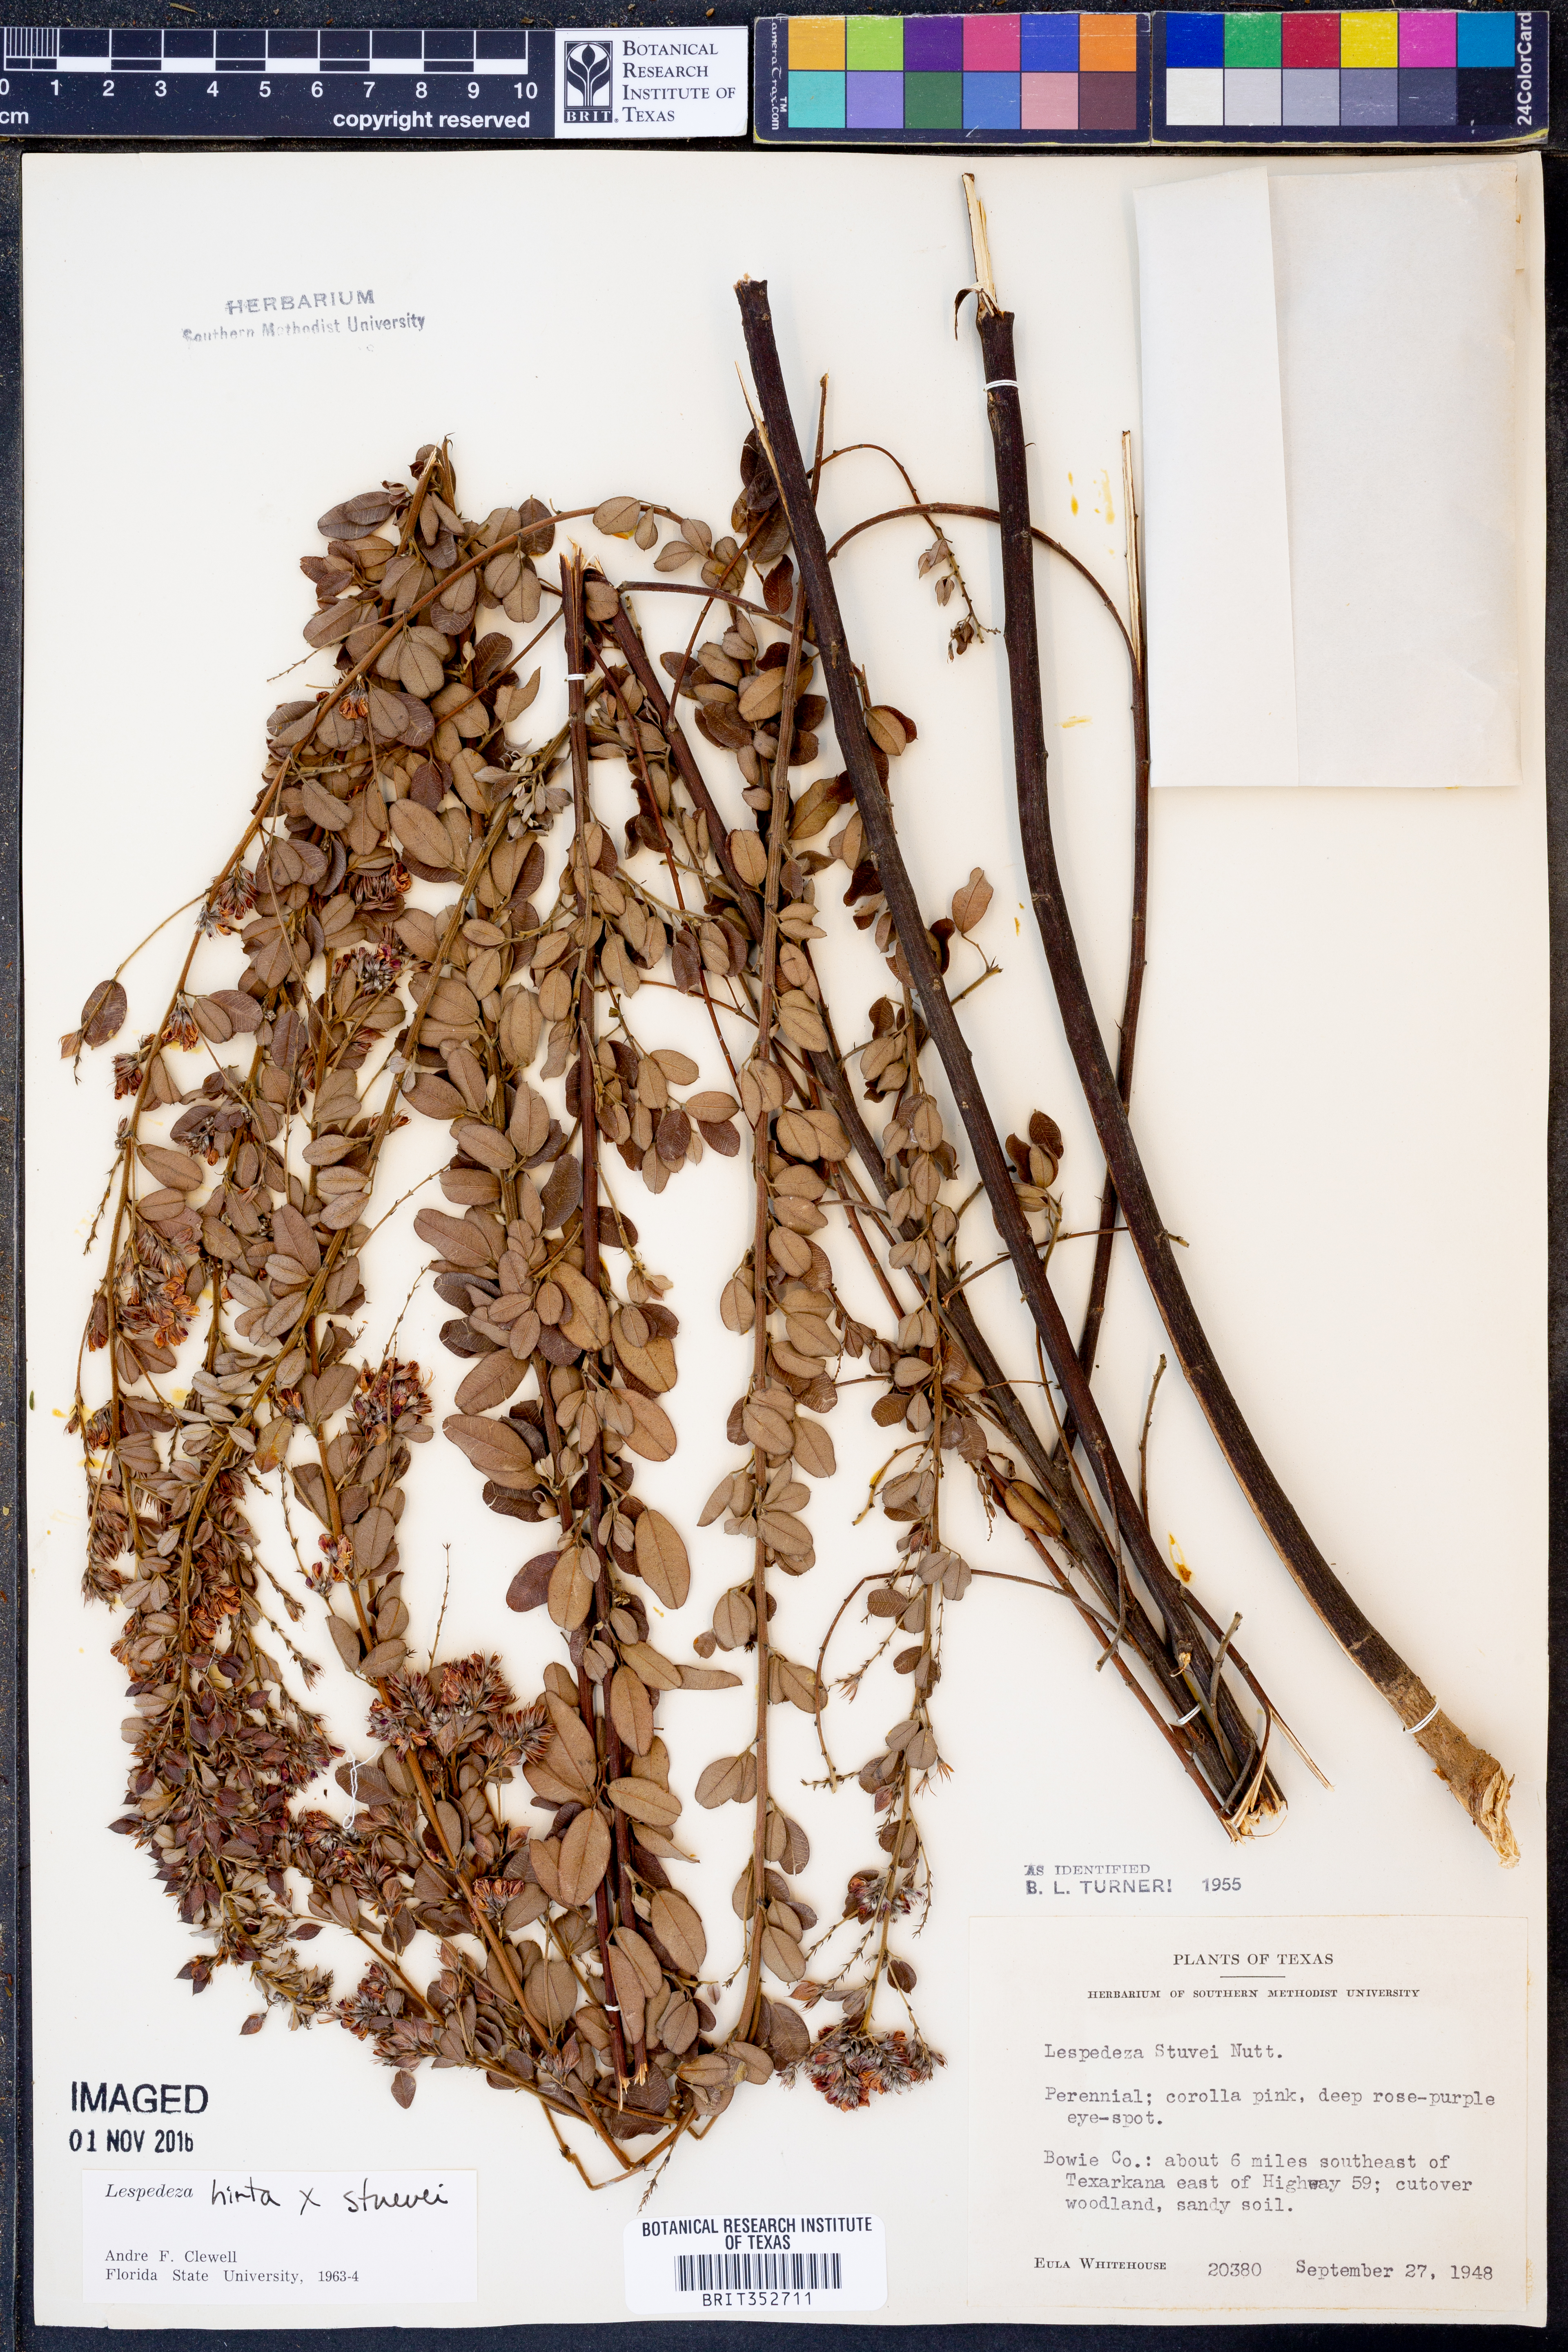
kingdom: Plantae
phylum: Tracheophyta
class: Magnoliopsida
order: Fabales
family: Fabaceae
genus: Lespedeza
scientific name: Lespedeza hirta
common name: Hairy lespedeza
